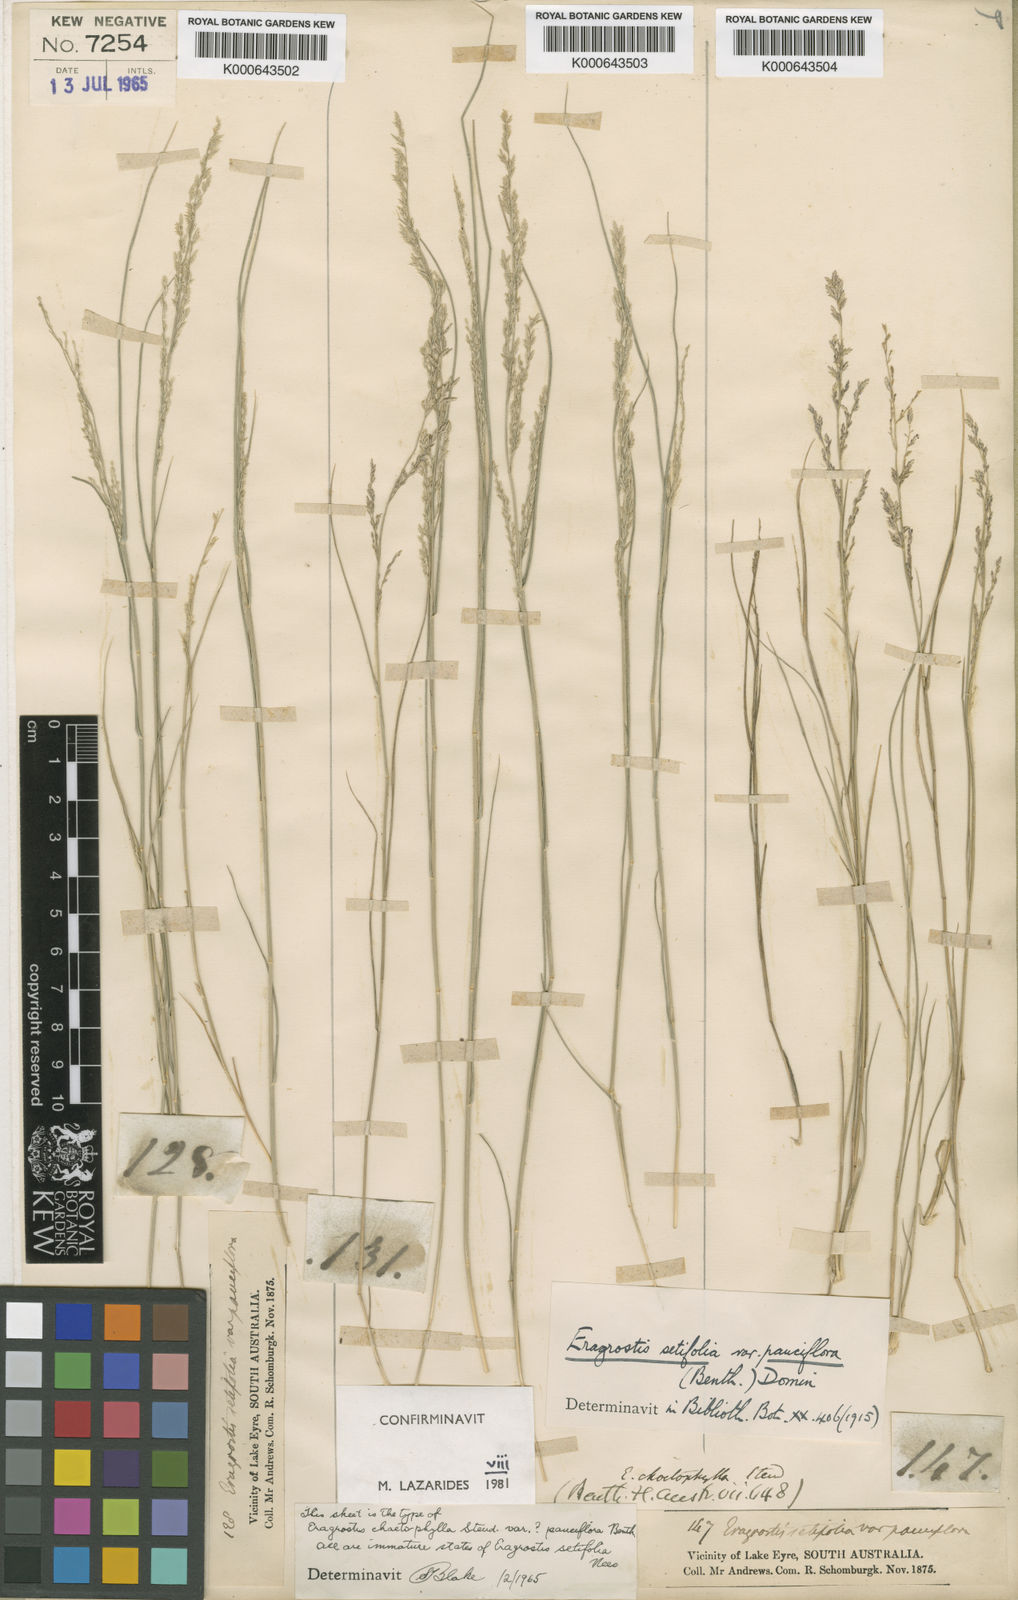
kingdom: Plantae
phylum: Tracheophyta
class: Liliopsida
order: Poales
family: Poaceae
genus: Eragrostis
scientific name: Eragrostis setifolia
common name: Bristleleaf lovegrass
